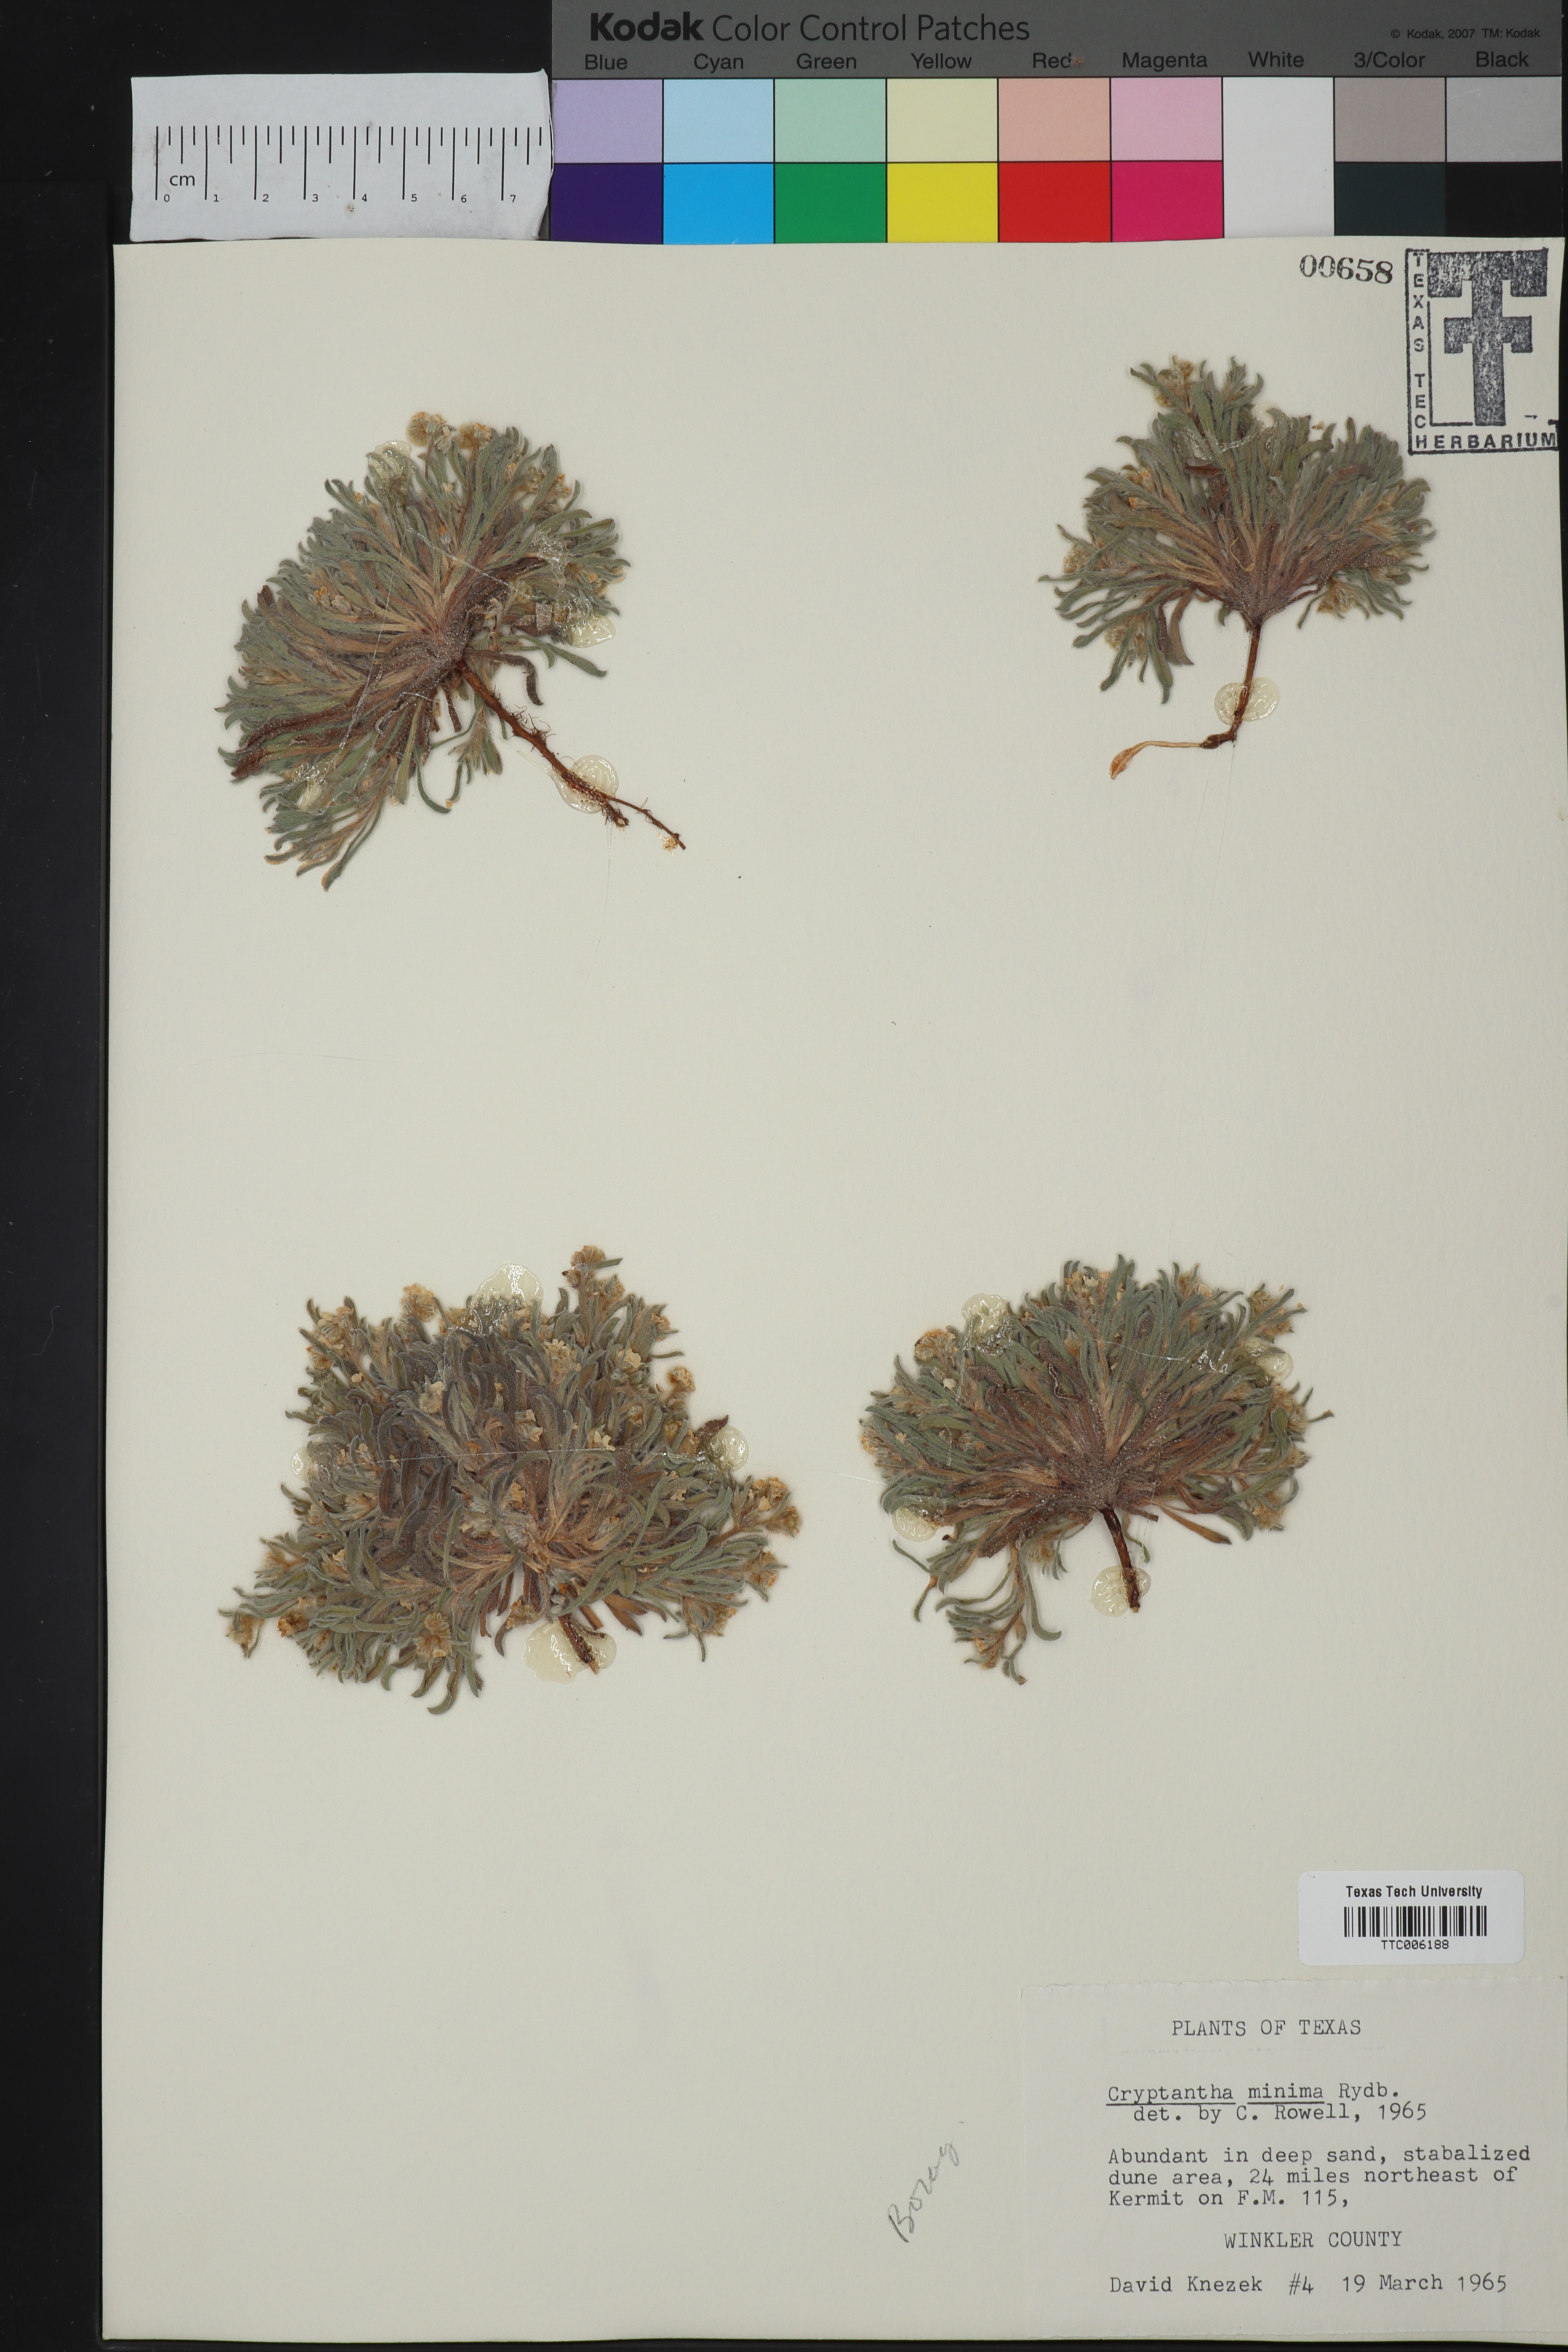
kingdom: Plantae
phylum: Tracheophyta
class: Magnoliopsida
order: Boraginales
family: Boraginaceae
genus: Cryptantha
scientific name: Cryptantha minima
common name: Little cat's-eye
